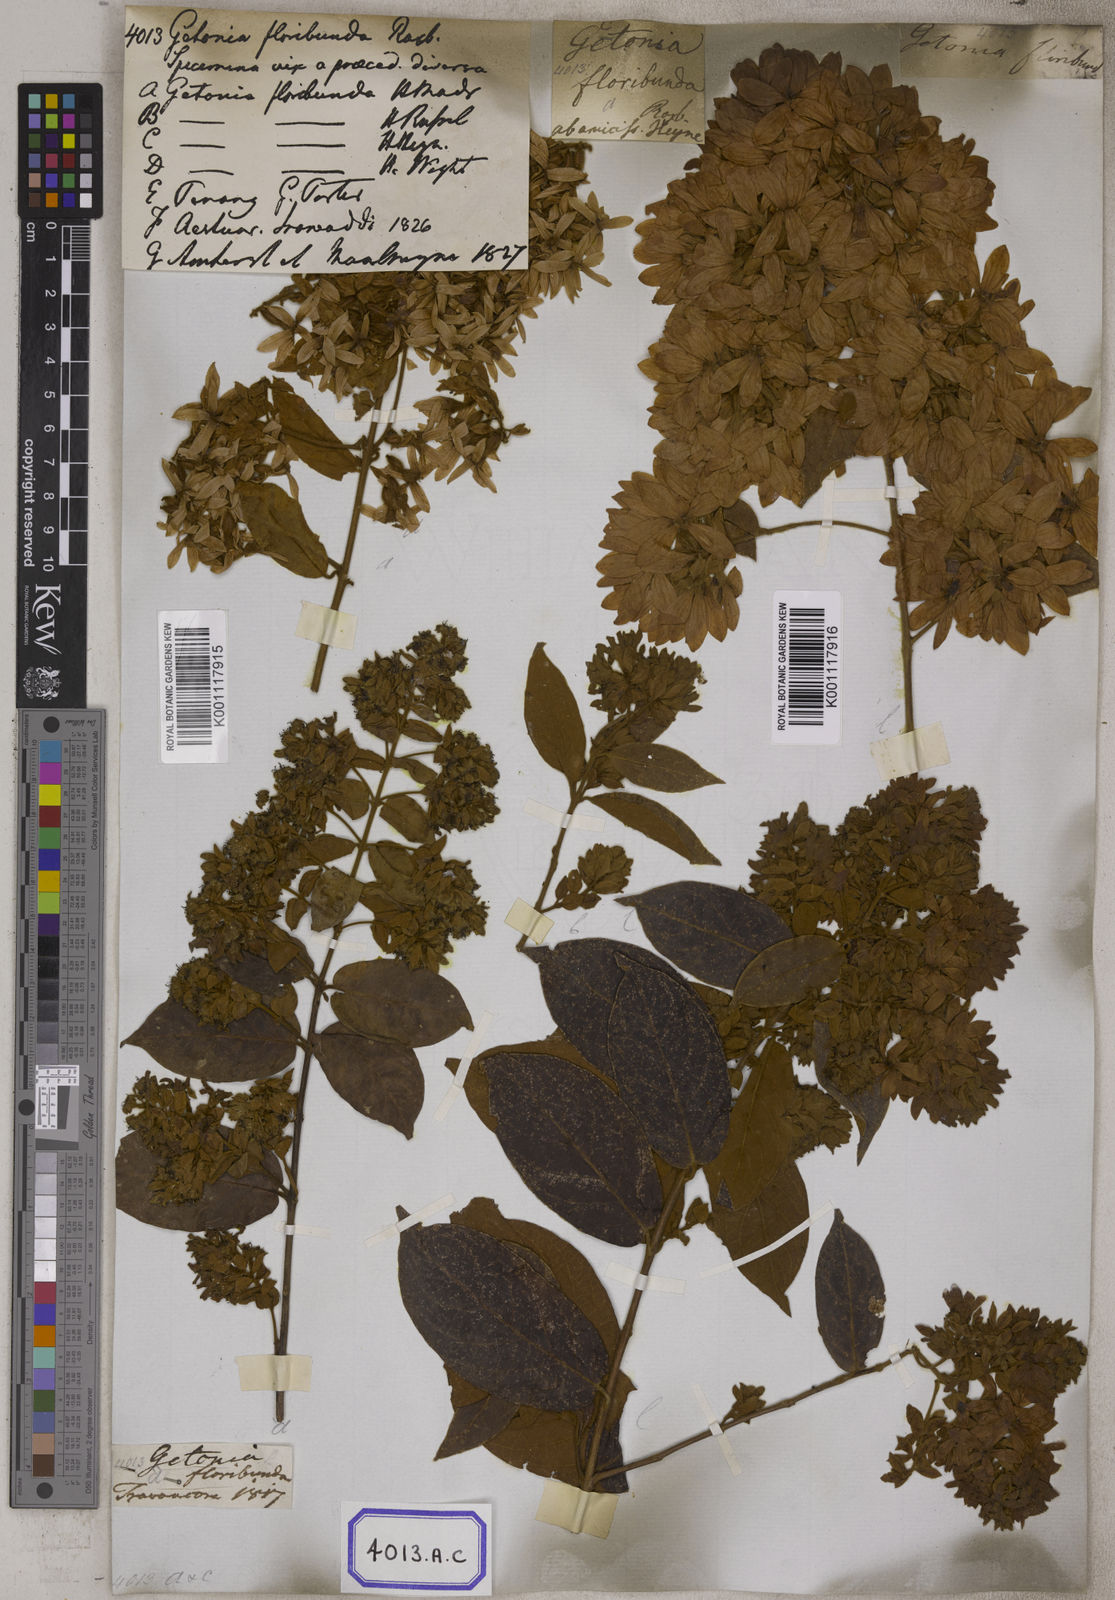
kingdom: Plantae
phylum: Tracheophyta
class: Magnoliopsida
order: Myrtales
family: Combretaceae
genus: Getonia
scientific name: Getonia floribunda
